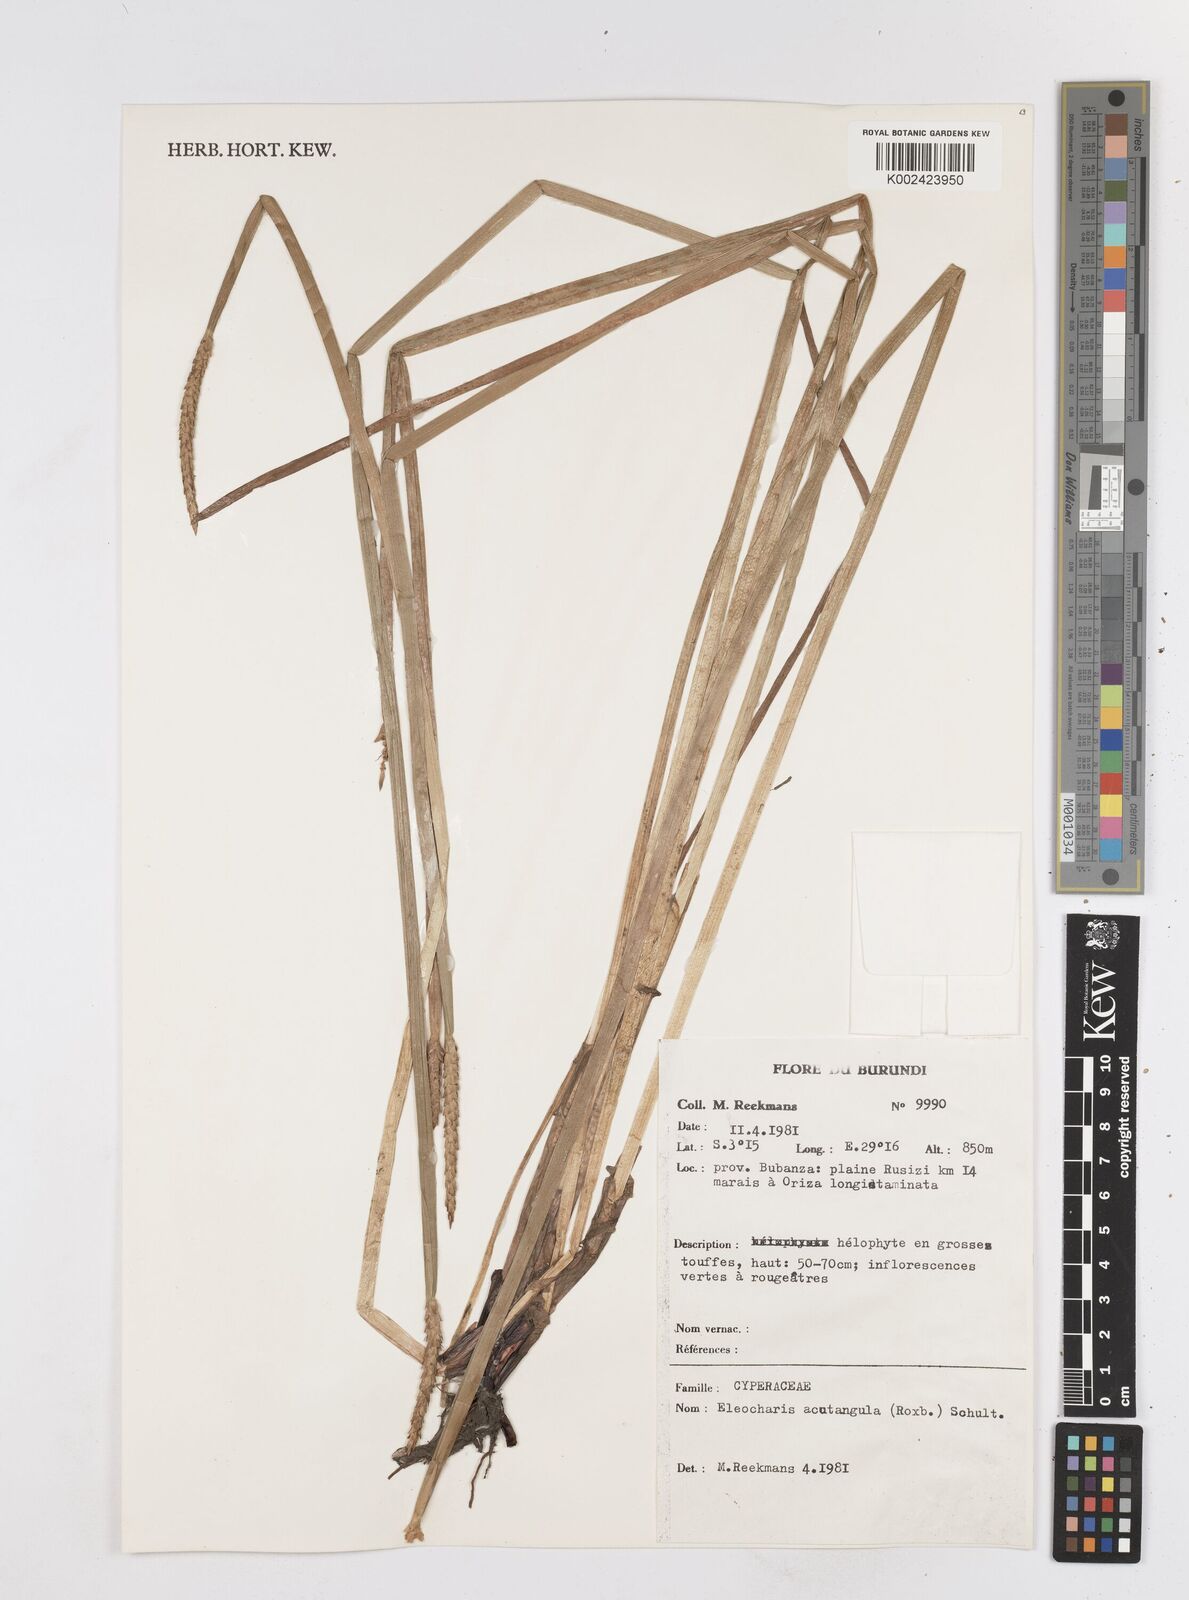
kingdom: Plantae
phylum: Tracheophyta
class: Liliopsida
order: Poales
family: Cyperaceae
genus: Eleocharis
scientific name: Eleocharis acutangula
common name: Acute spikerush
